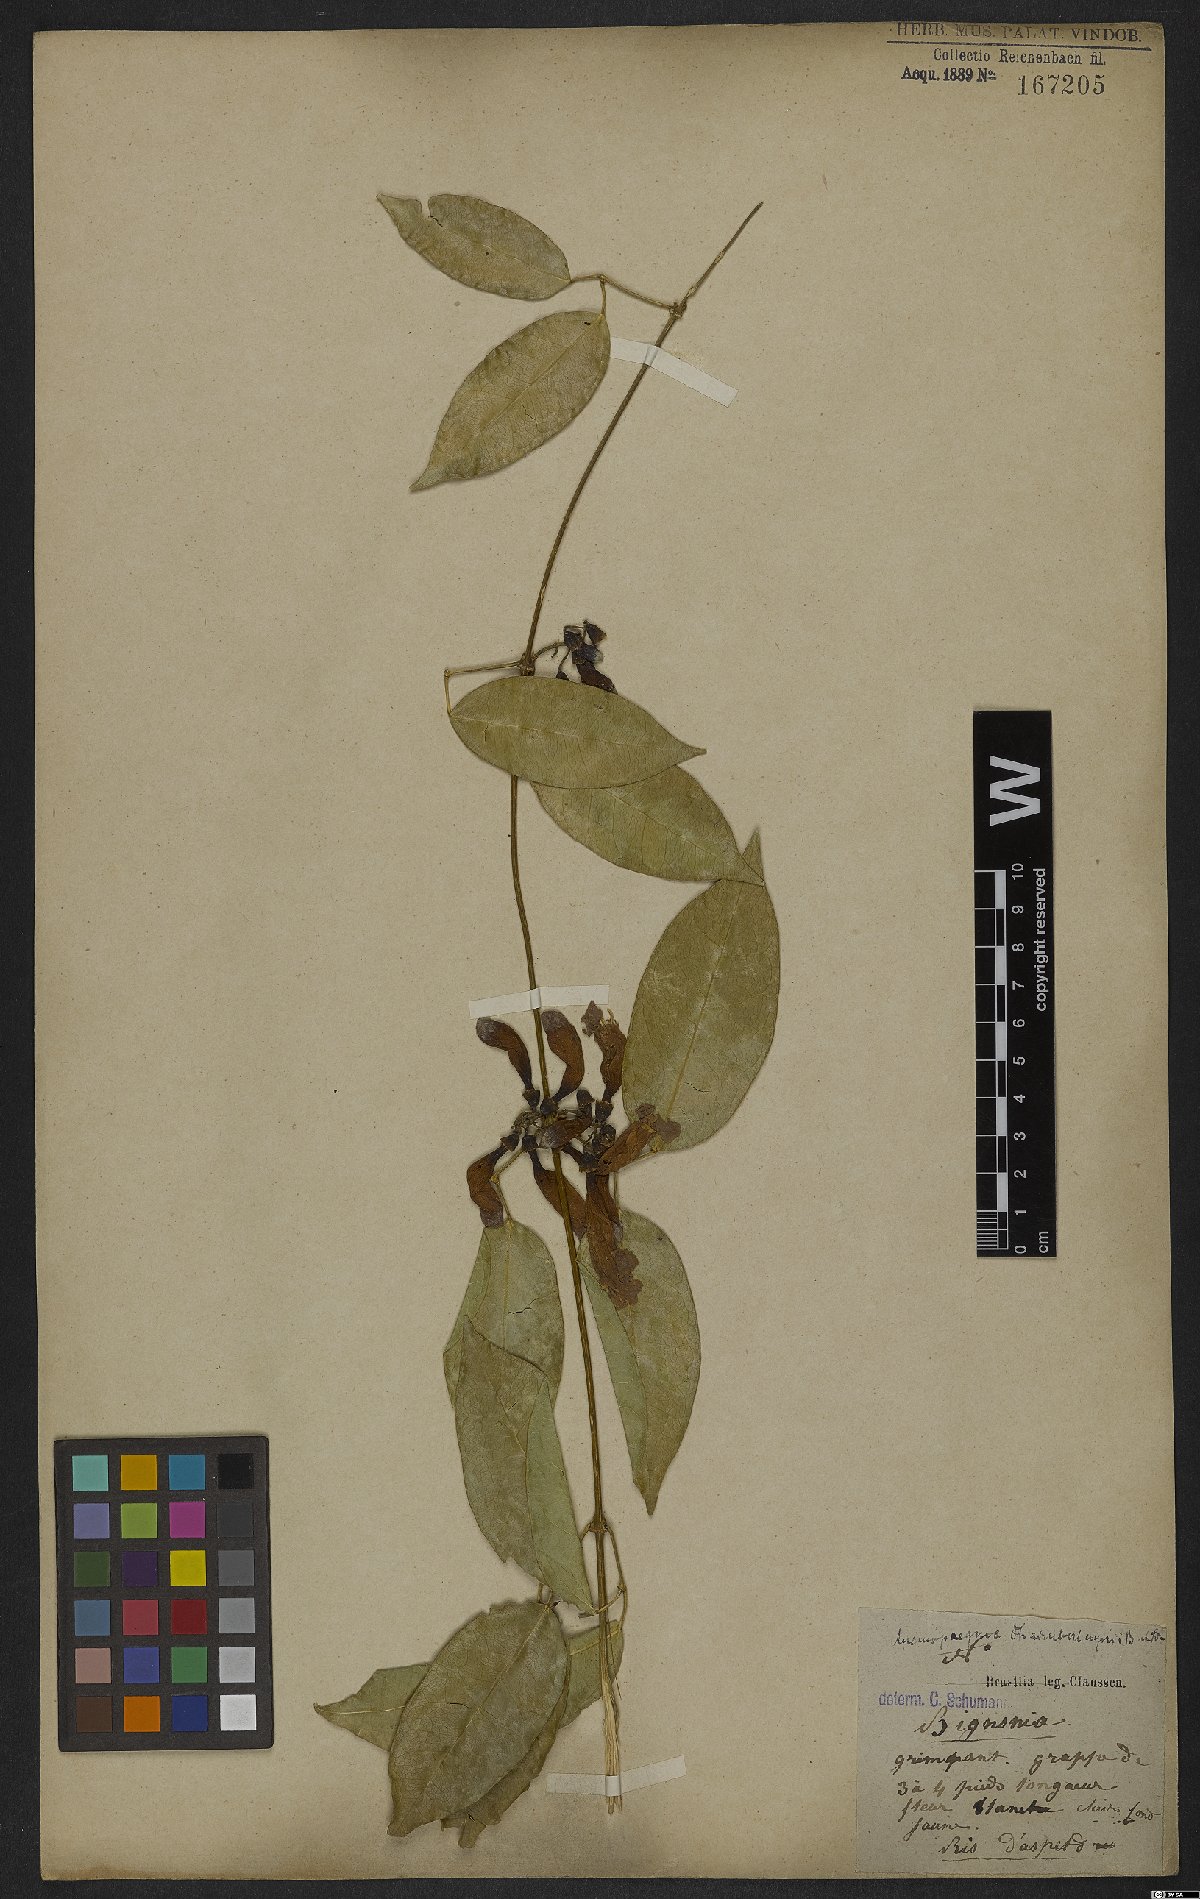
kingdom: Plantae
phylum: Tracheophyta
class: Magnoliopsida
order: Lamiales
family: Bignoniaceae
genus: Anemopaegma
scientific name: Anemopaegma chamberlaynii
